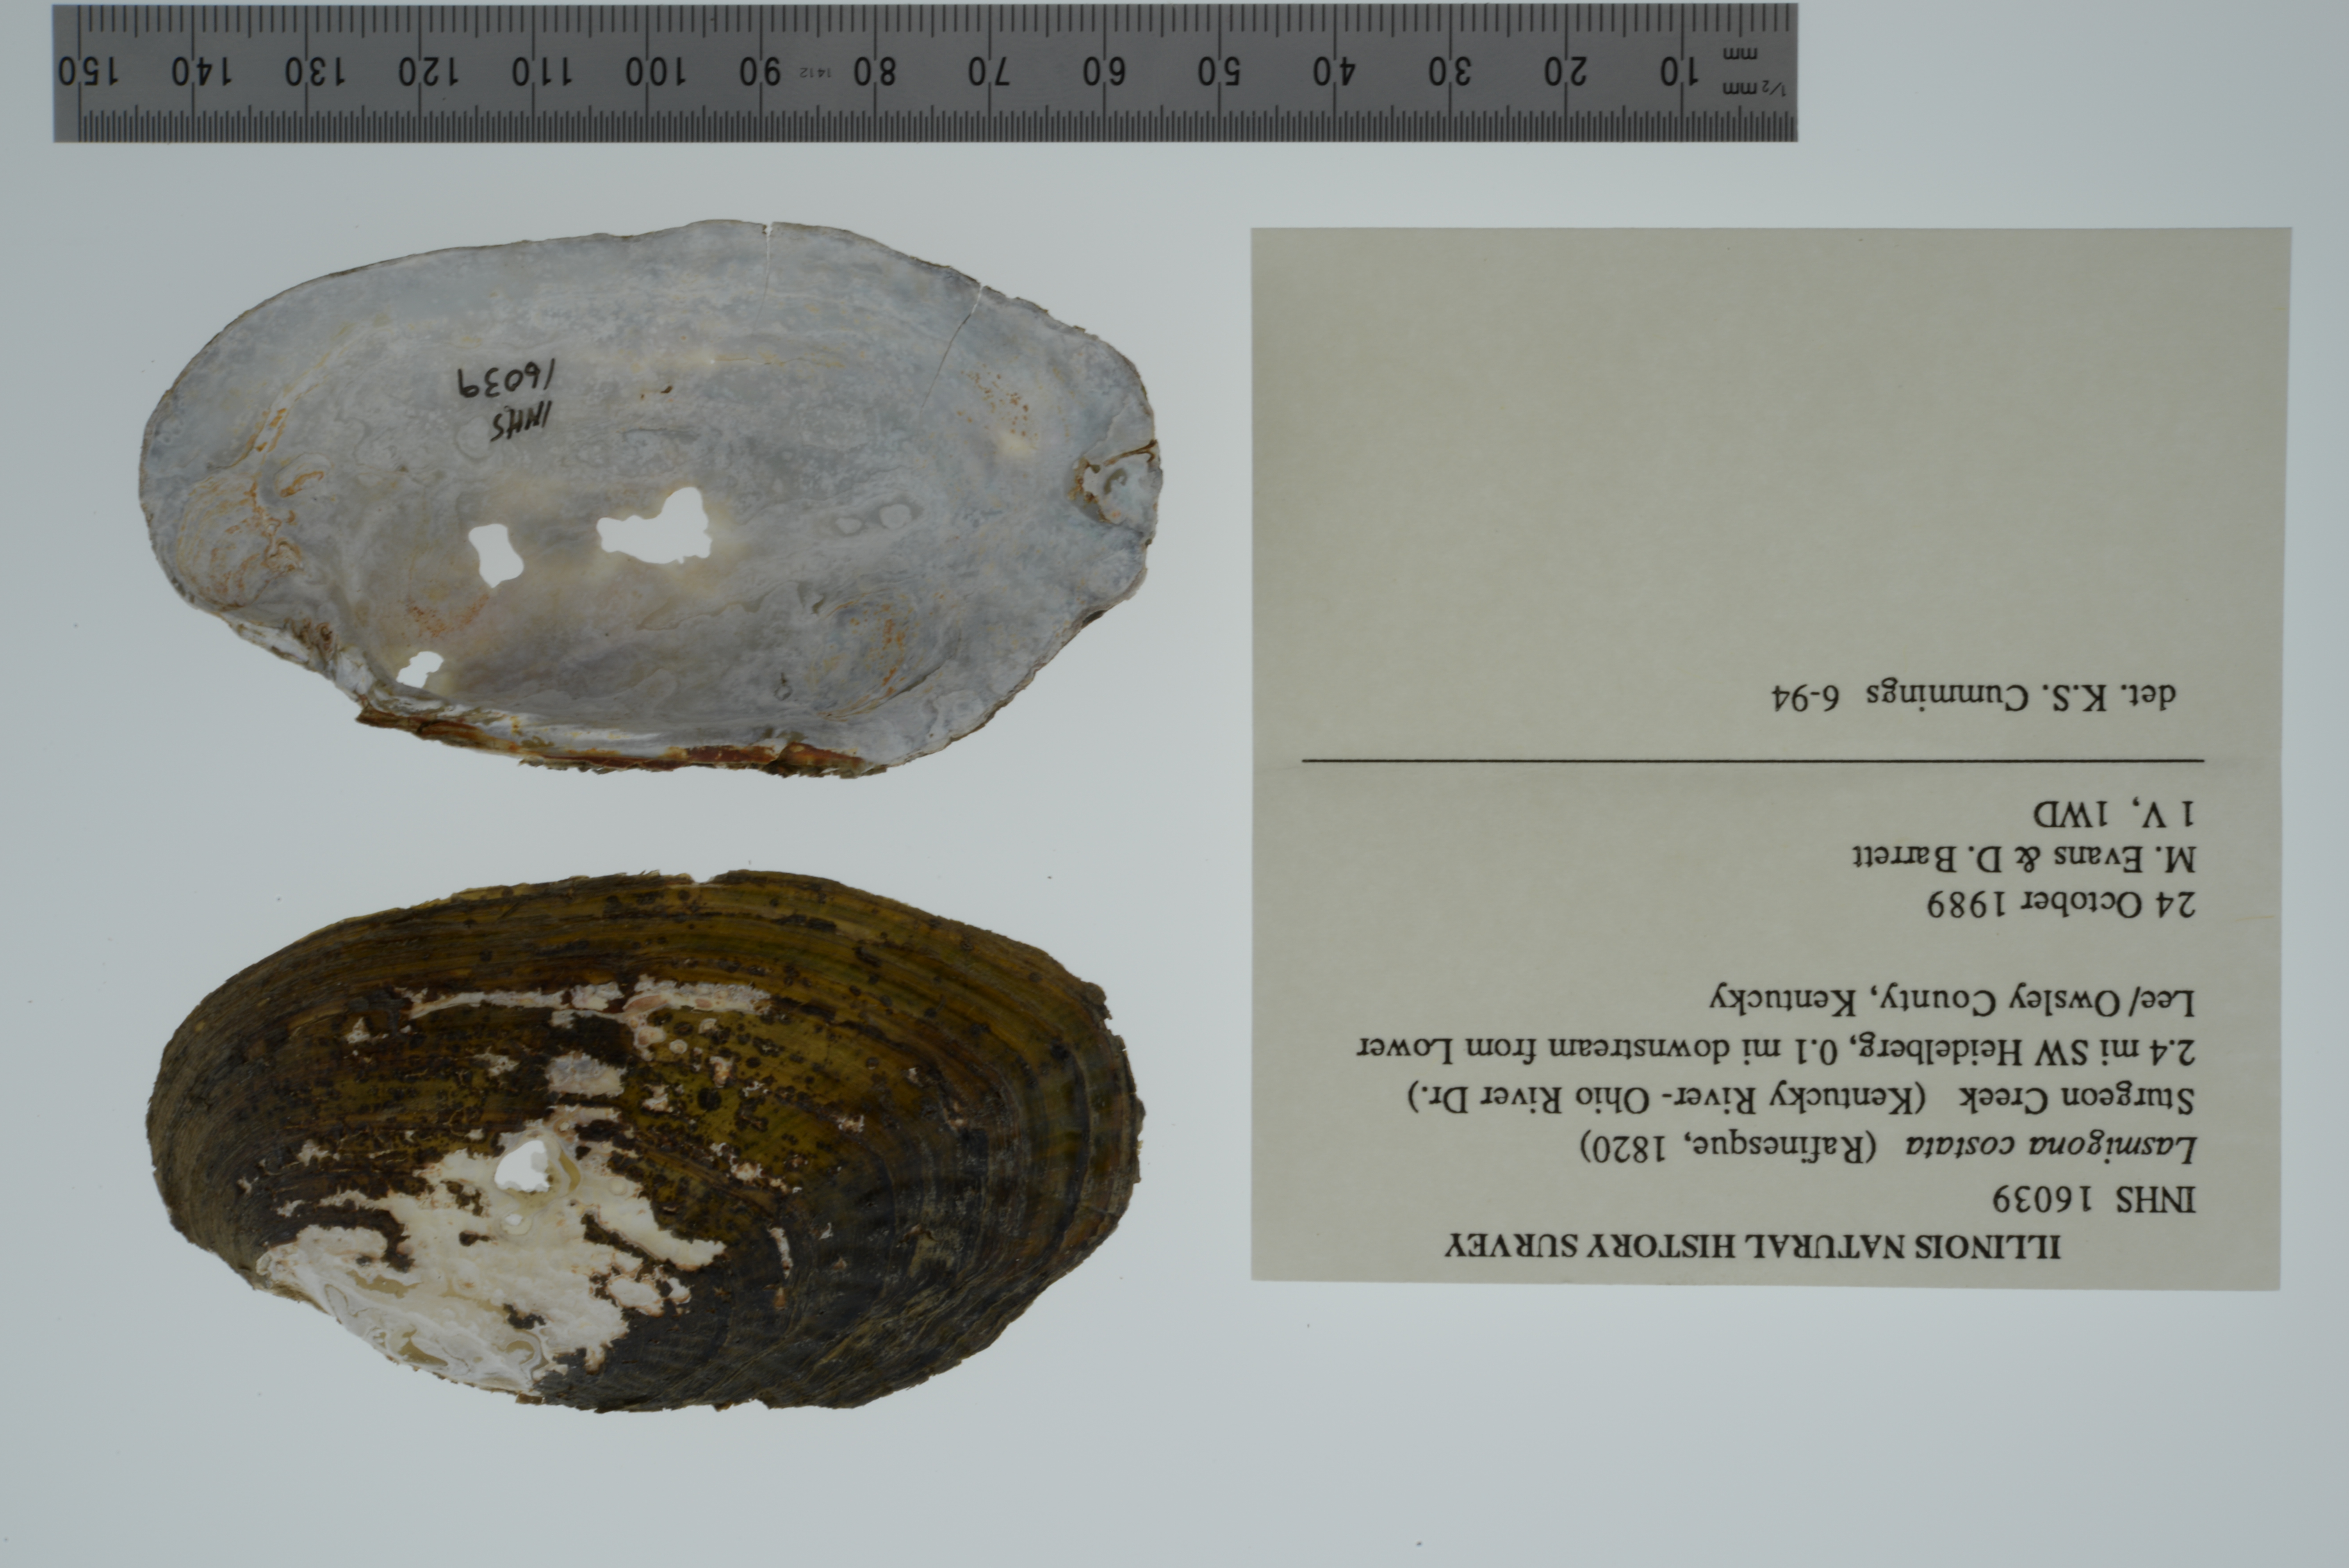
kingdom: Animalia
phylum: Mollusca
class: Bivalvia
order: Unionida
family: Unionidae
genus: Lasmigona
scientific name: Lasmigona costata
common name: Flutedshell
